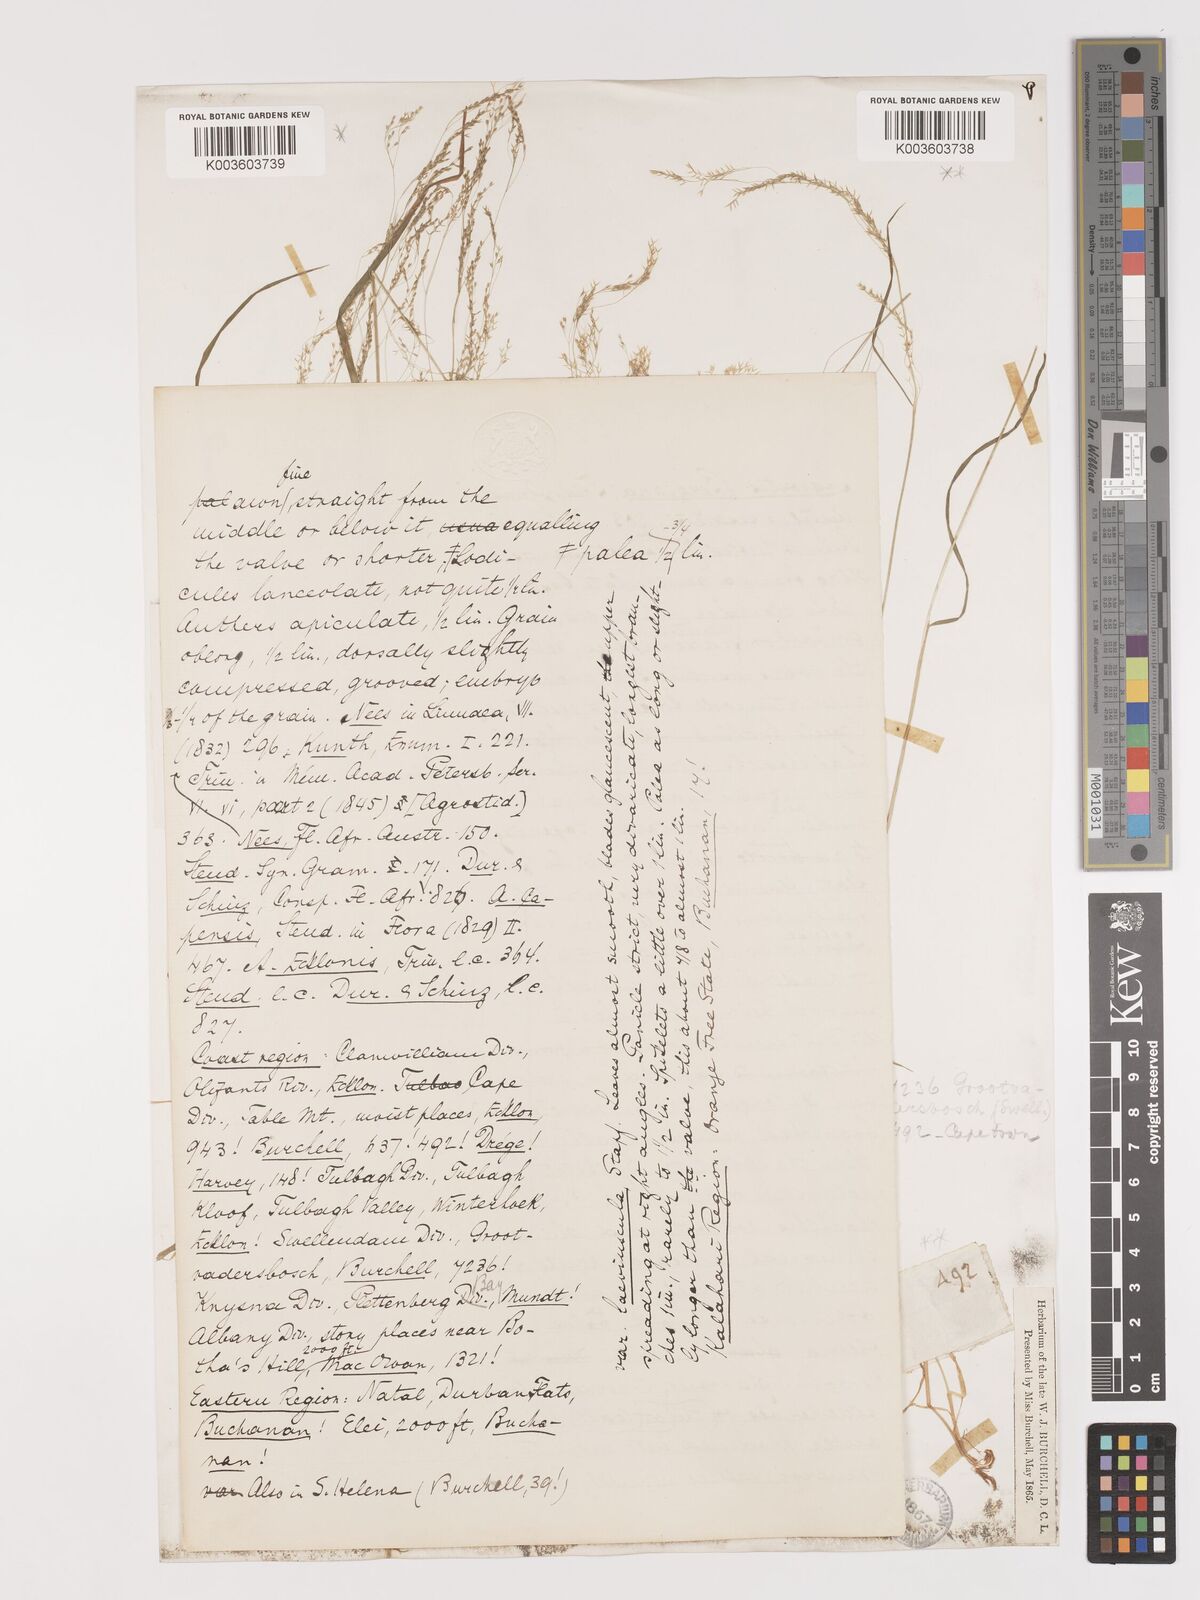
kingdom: Plantae
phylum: Tracheophyta
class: Liliopsida
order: Poales
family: Poaceae
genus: Agrostis
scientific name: Agrostis bergiana
